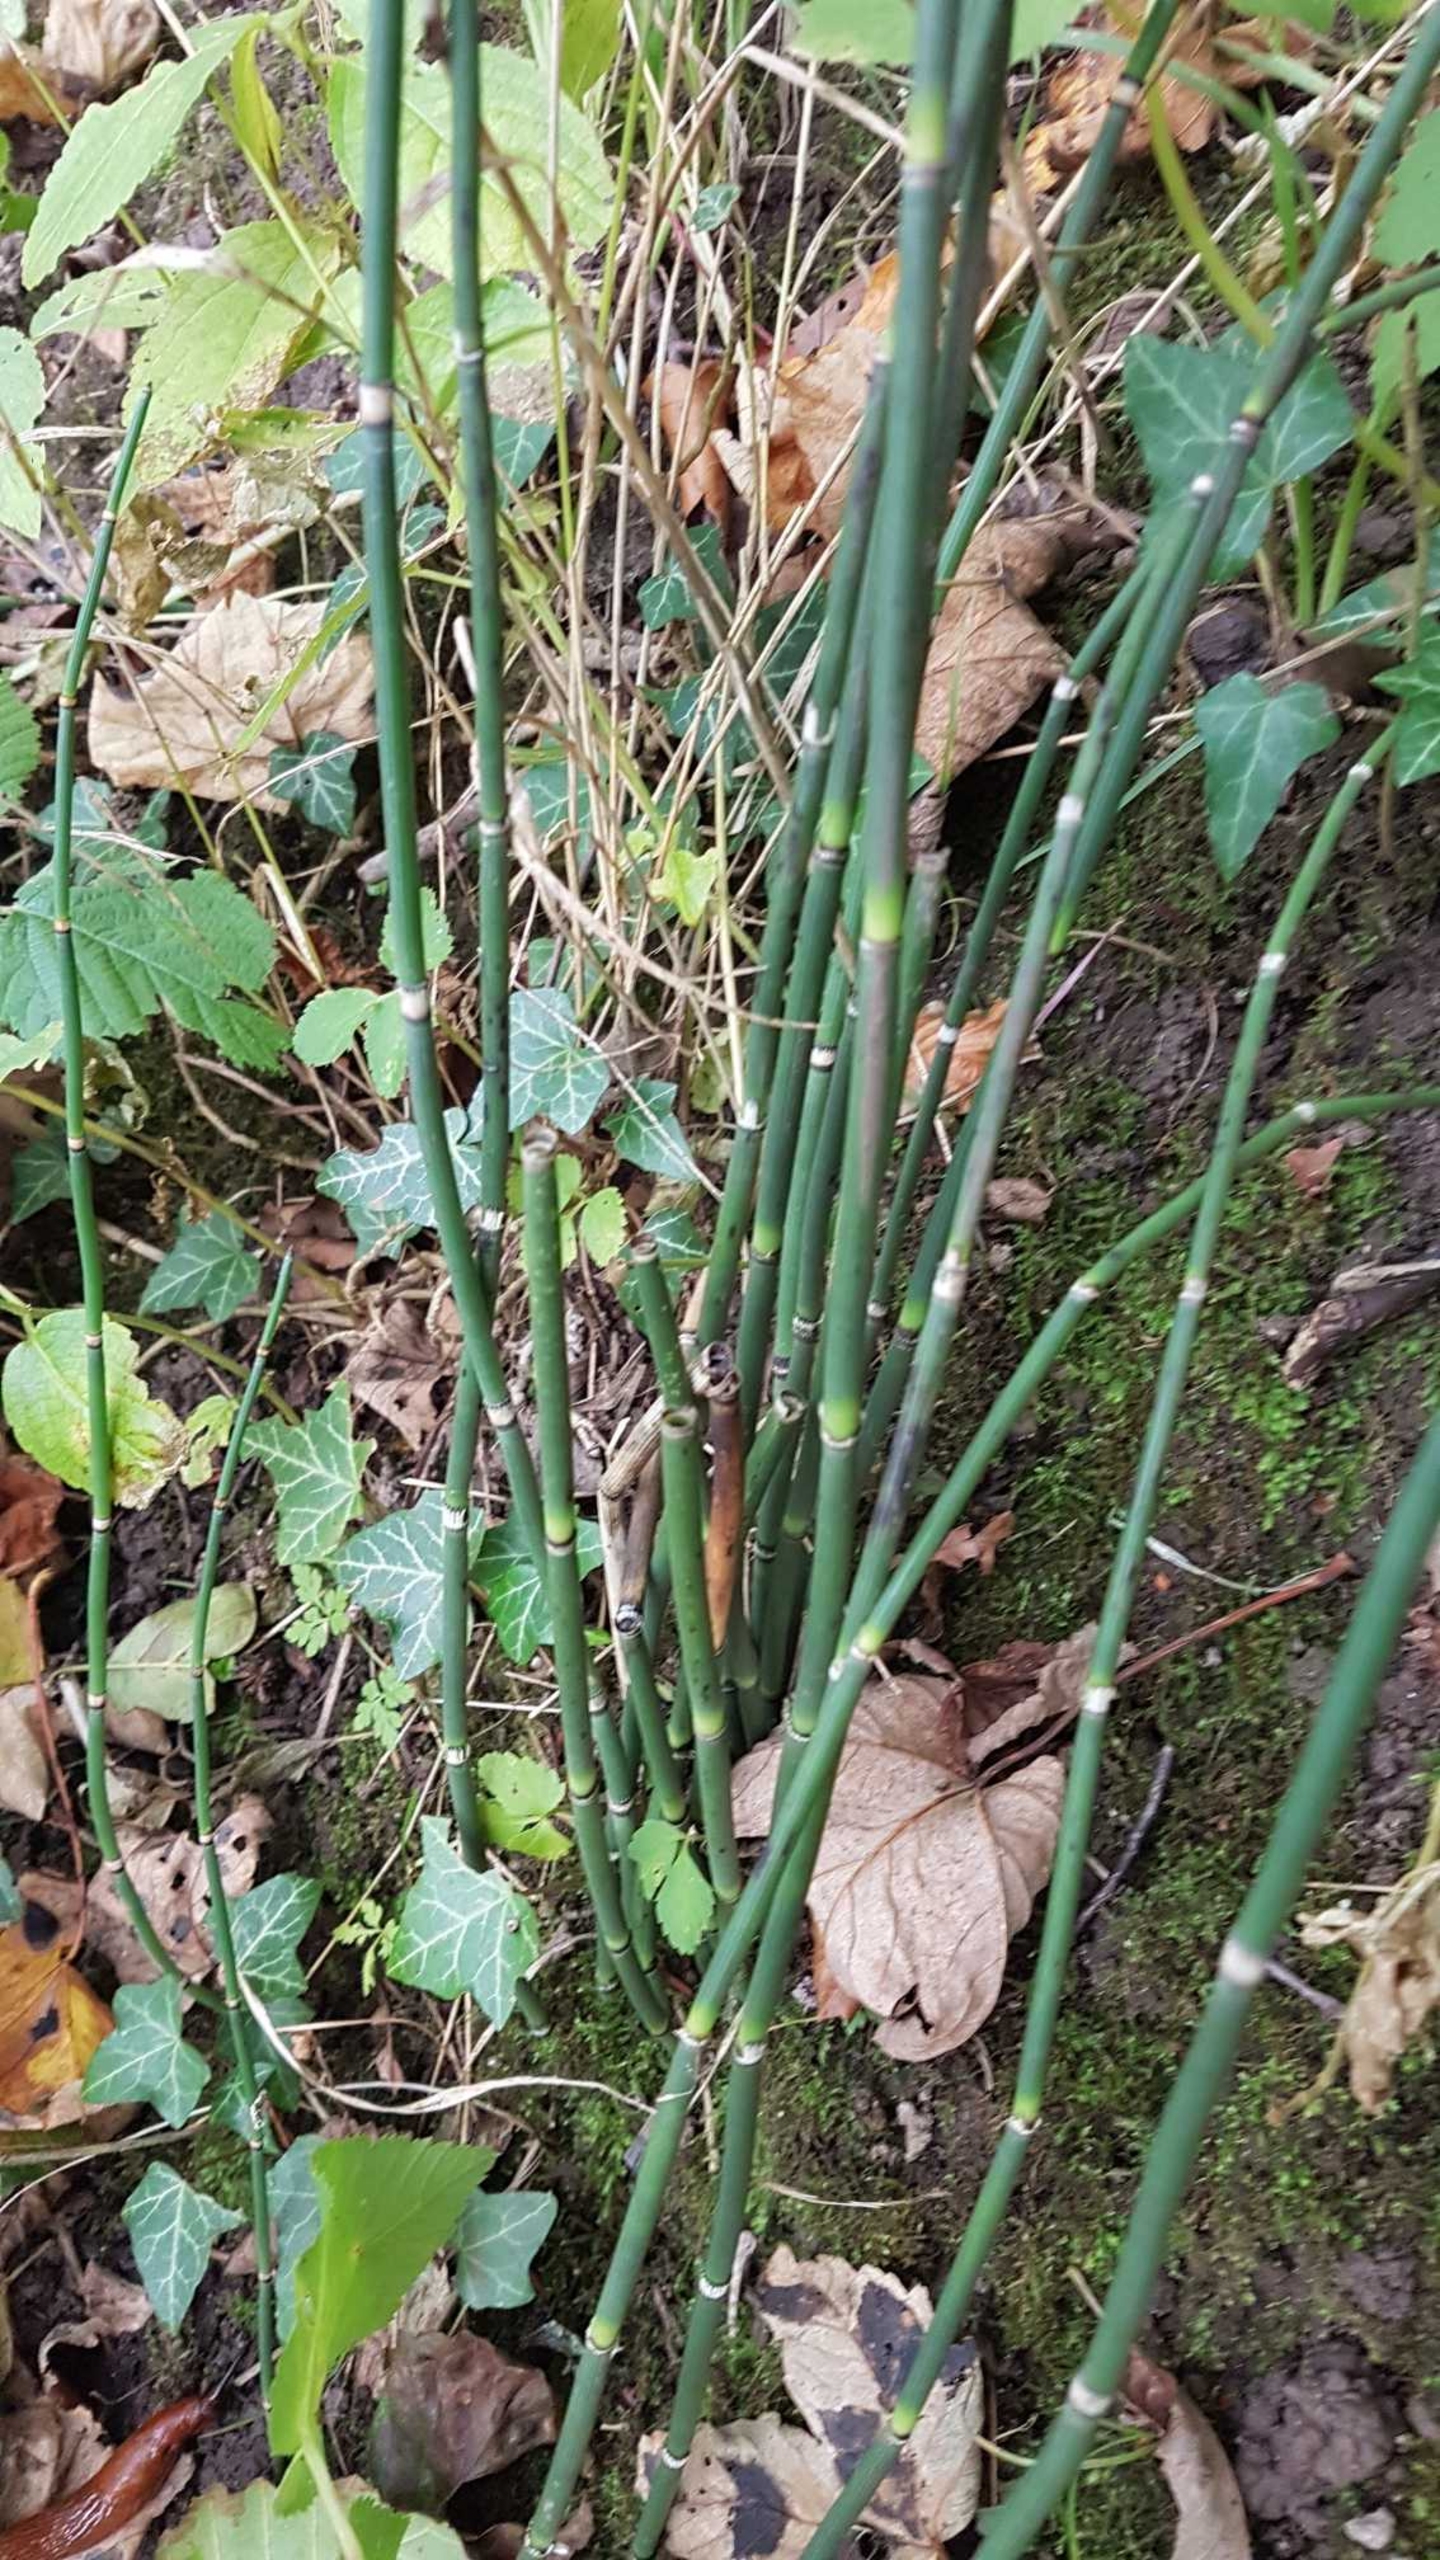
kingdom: Plantae
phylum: Tracheophyta
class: Polypodiopsida
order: Equisetales
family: Equisetaceae
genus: Equisetum
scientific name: Equisetum hyemale
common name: Skavgræs
